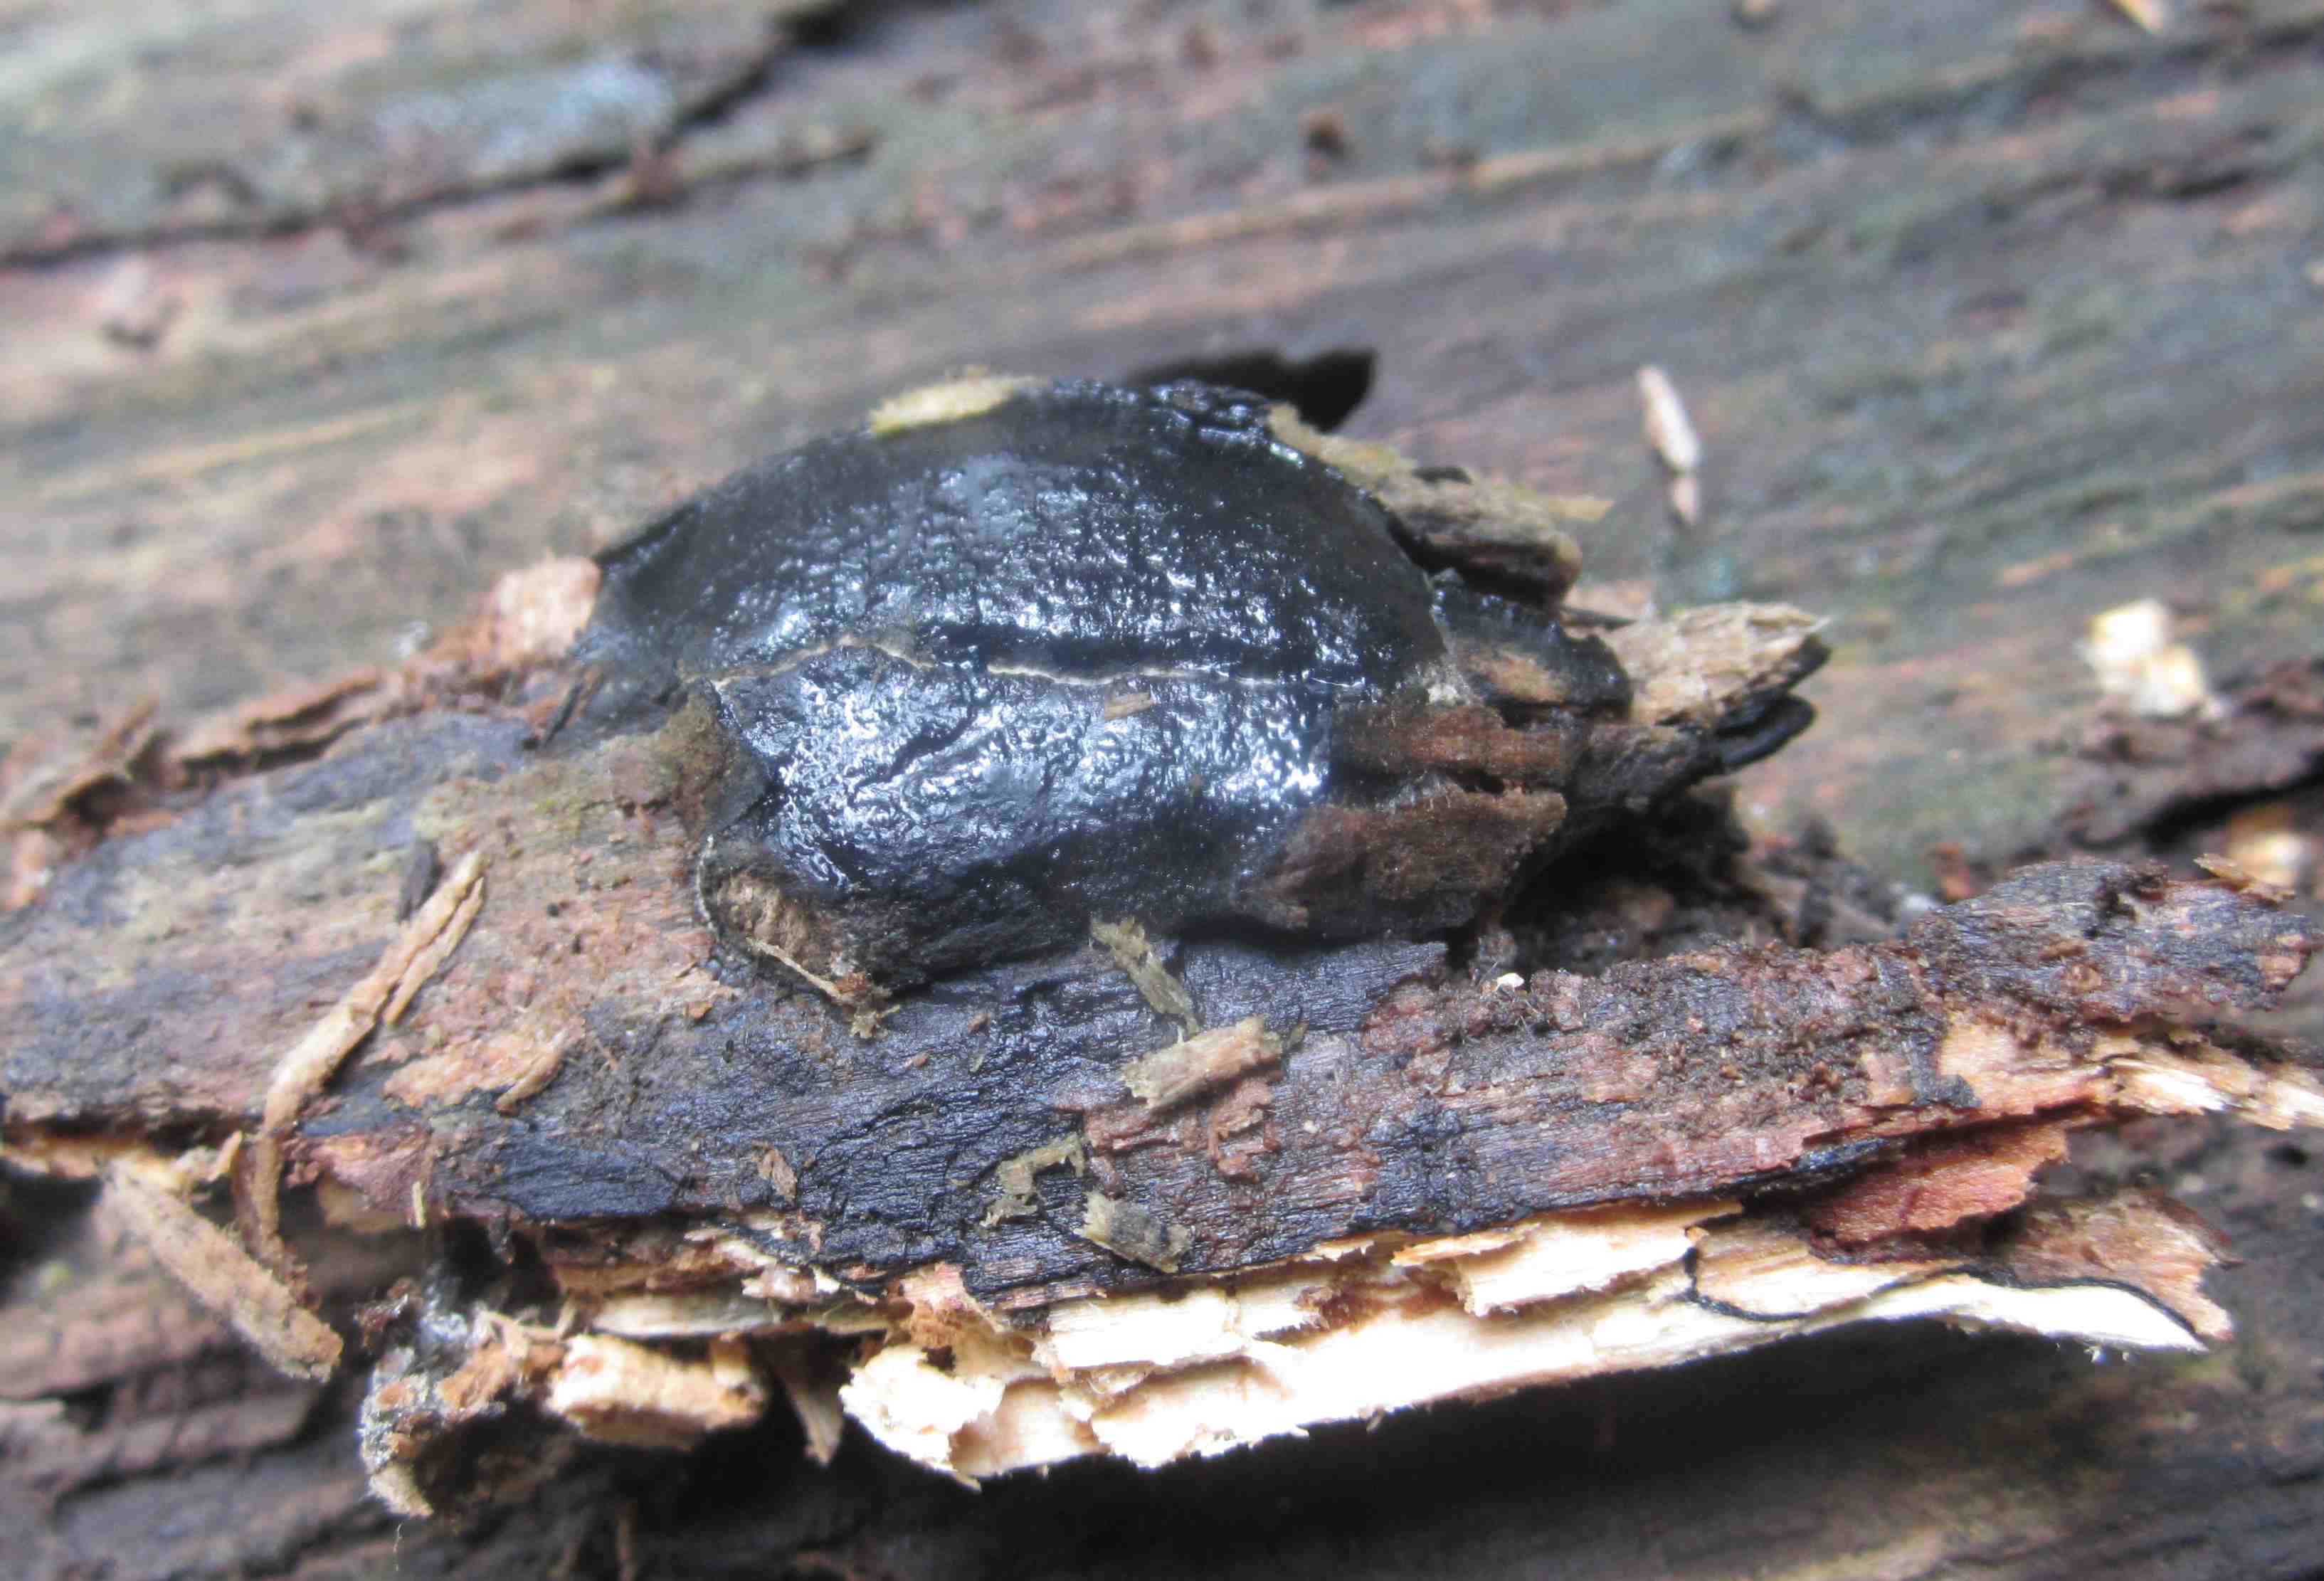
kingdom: Fungi
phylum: Ascomycota
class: Sordariomycetes
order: Boliniales
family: Boliniaceae
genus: Camarops
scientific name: Camarops tubulina
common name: knudret kulsnegl
